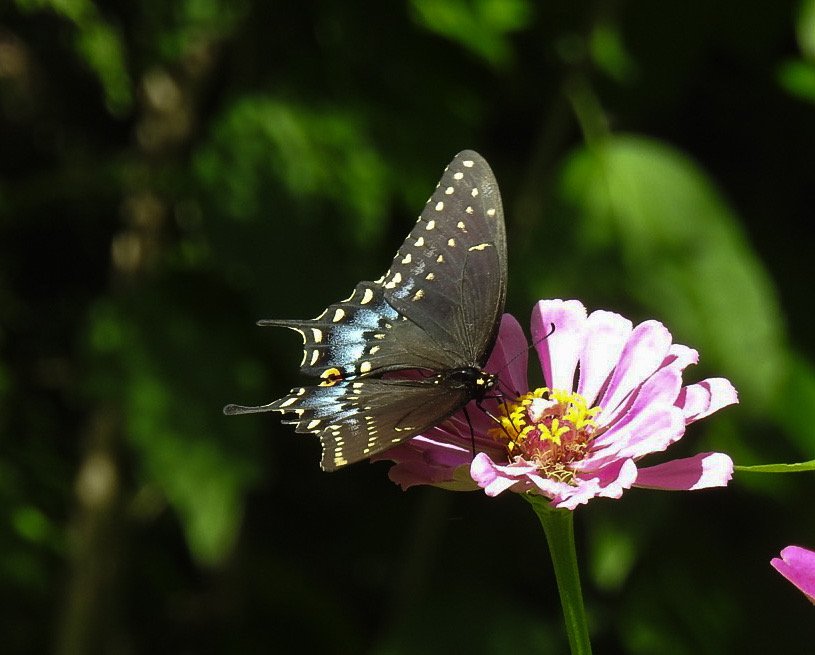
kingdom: Animalia
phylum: Arthropoda
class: Insecta
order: Lepidoptera
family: Papilionidae
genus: Papilio
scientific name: Papilio polyxenes
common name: Black Swallowtail
